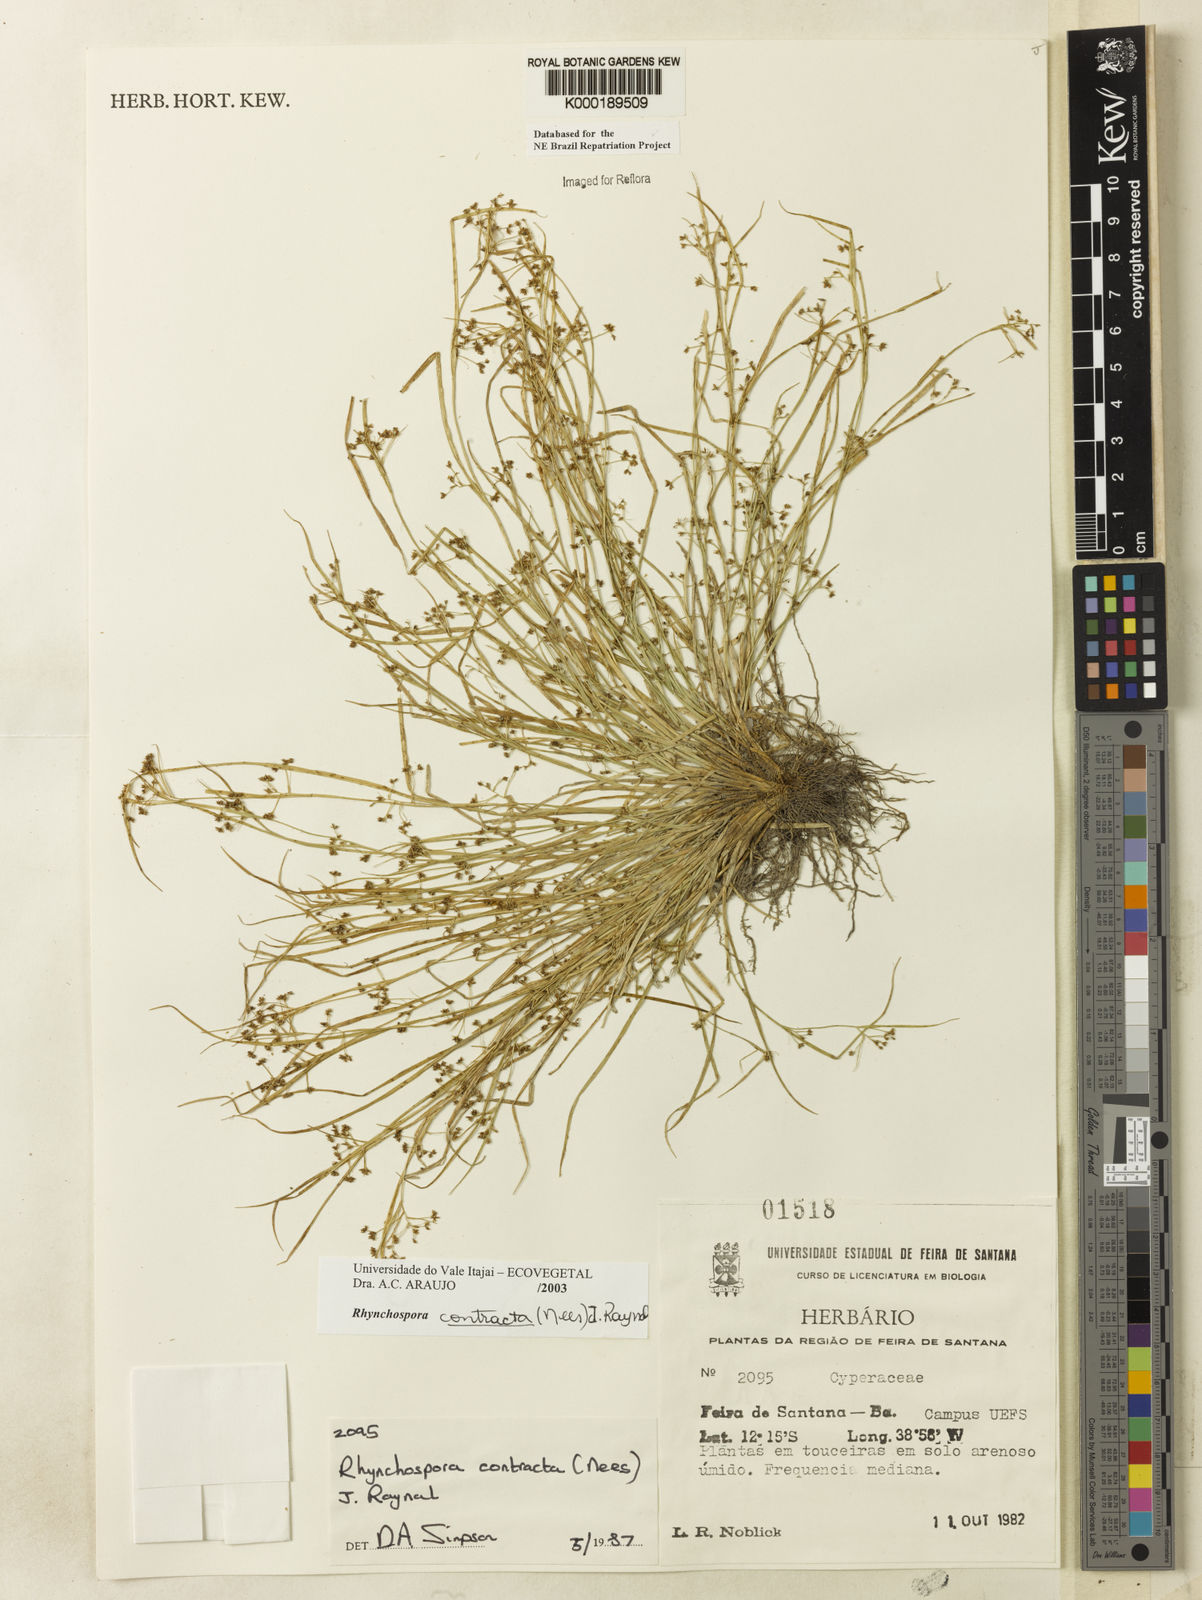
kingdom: Plantae
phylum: Tracheophyta
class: Liliopsida
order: Poales
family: Cyperaceae
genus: Rhynchospora
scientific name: Rhynchospora contracta
